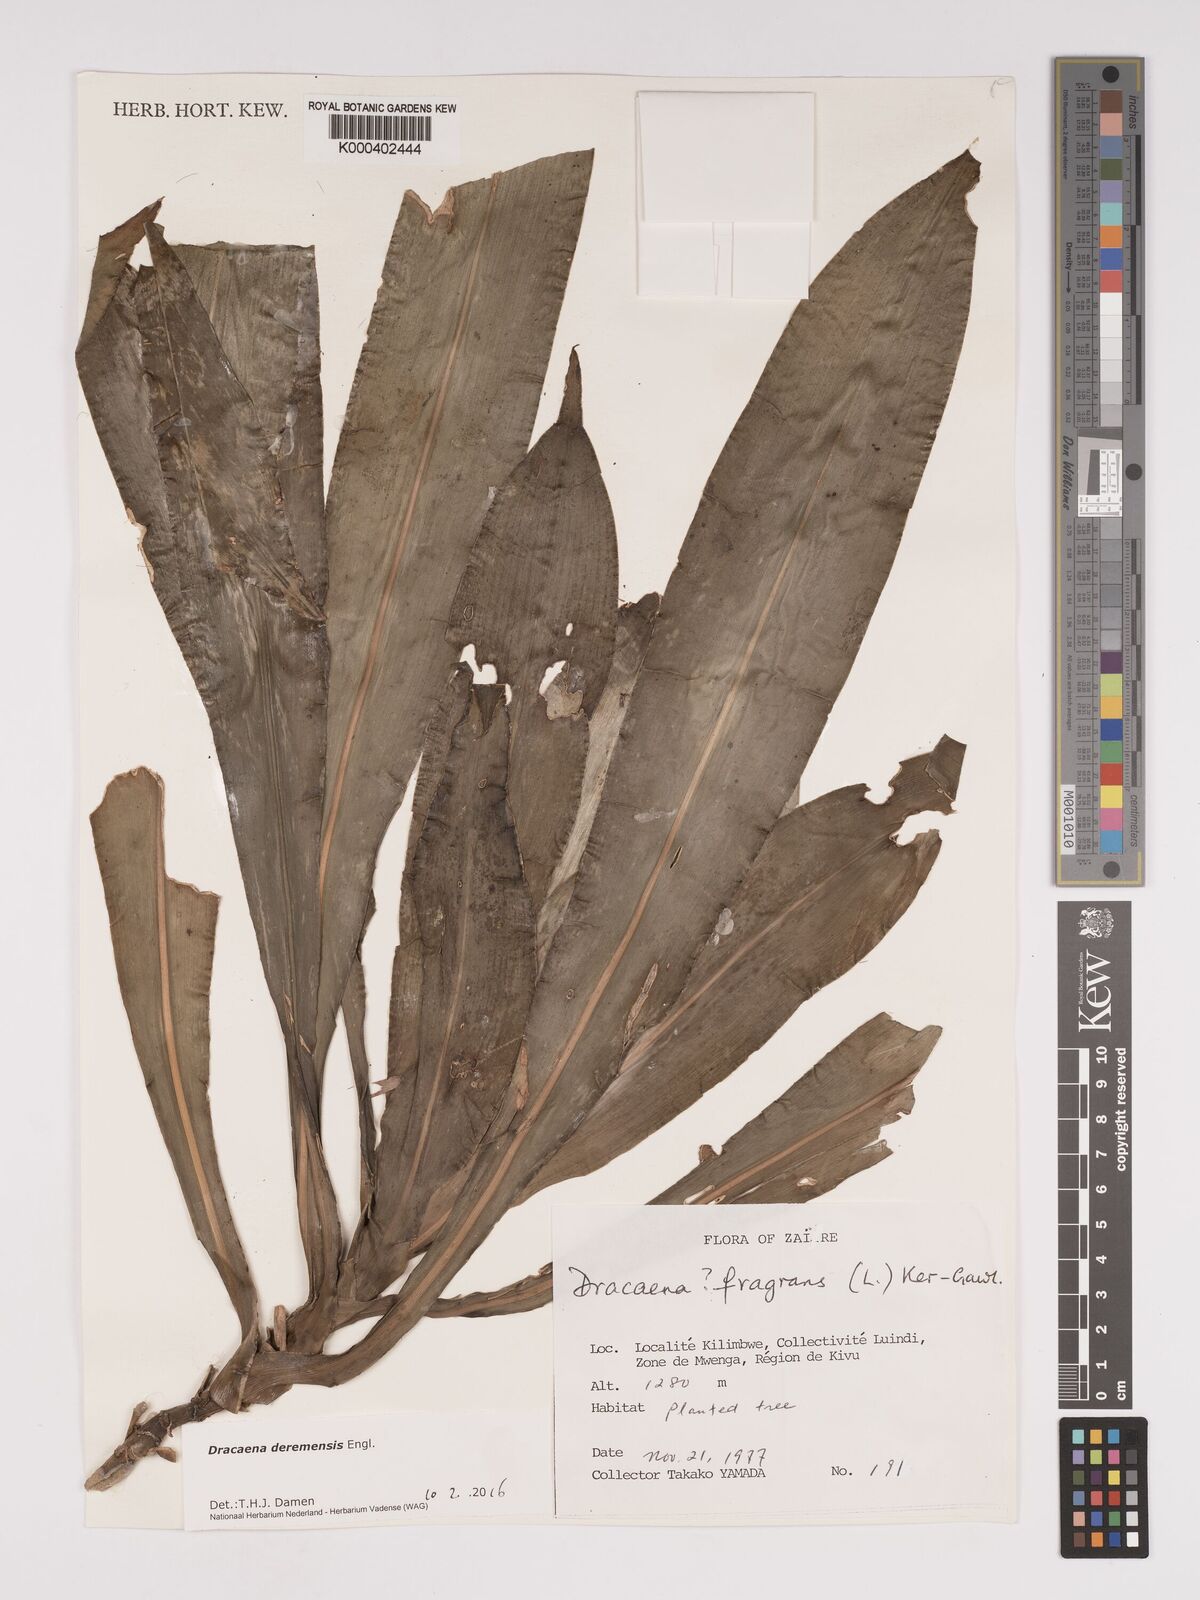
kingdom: Plantae
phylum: Tracheophyta
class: Liliopsida
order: Asparagales
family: Asparagaceae
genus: Dracaena
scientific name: Dracaena fragrans
